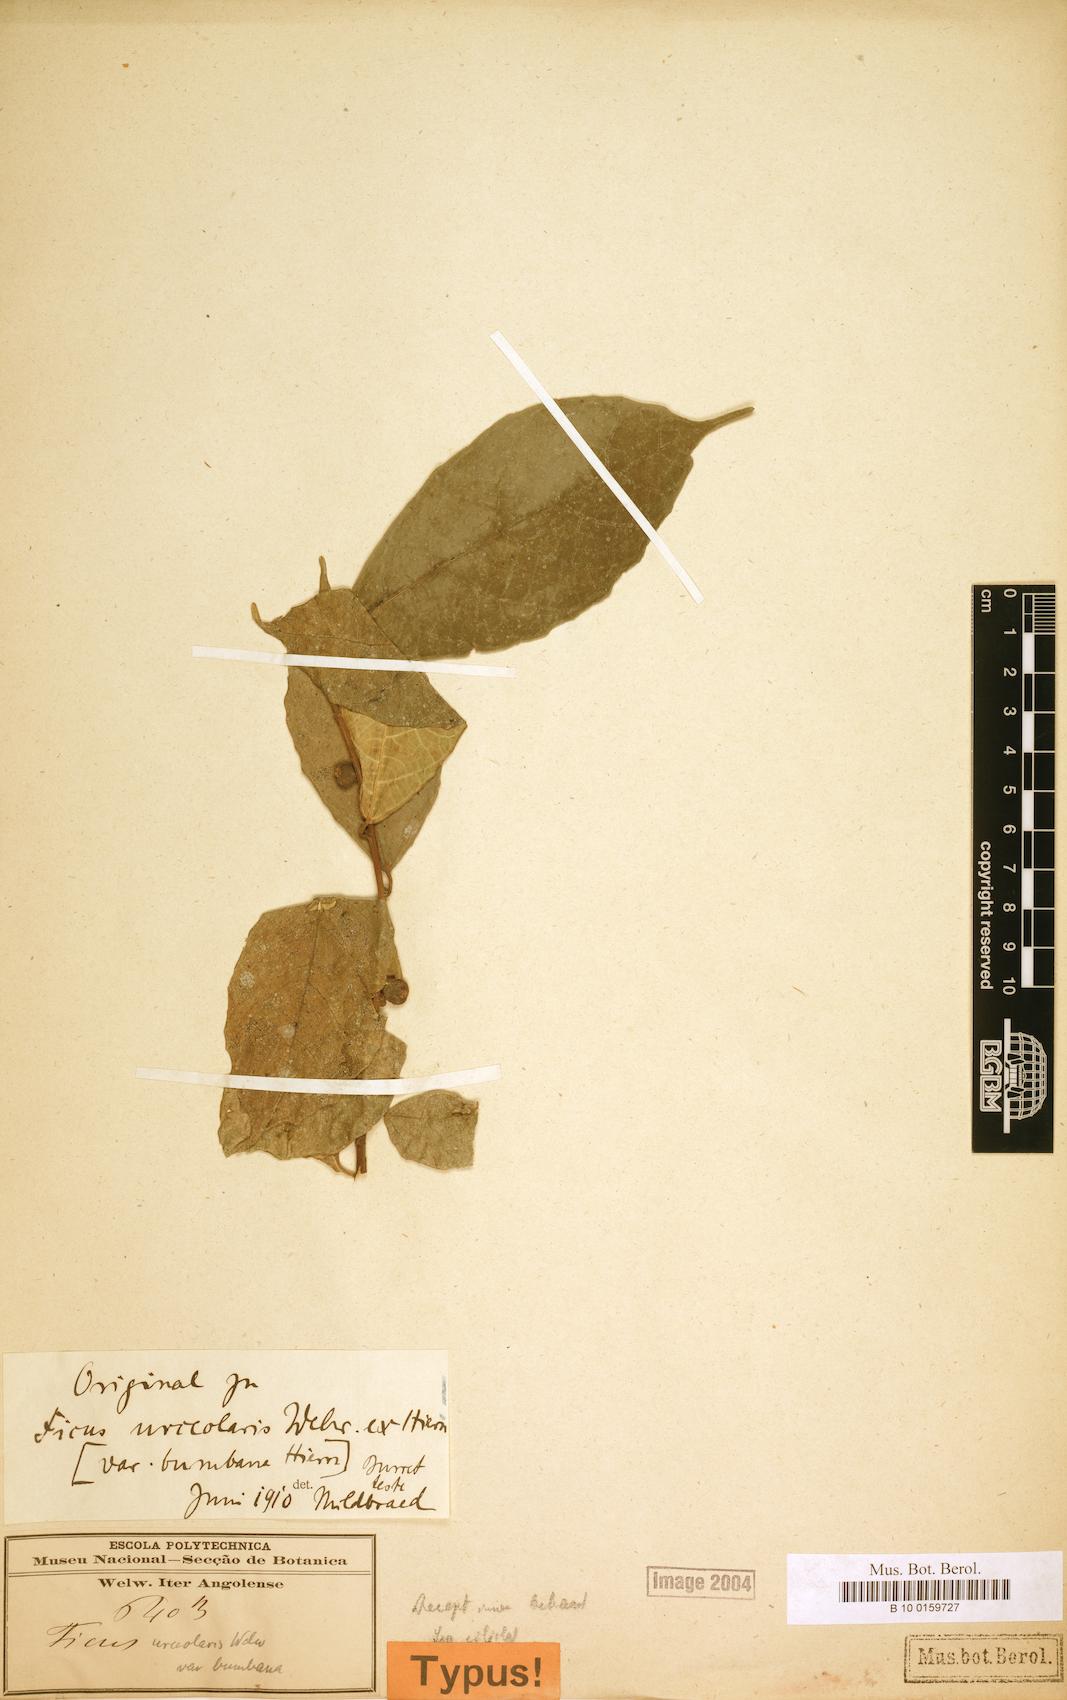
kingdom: Plantae
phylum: Tracheophyta
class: Magnoliopsida
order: Rosales
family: Moraceae
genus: Ficus
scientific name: Ficus asperifolia
